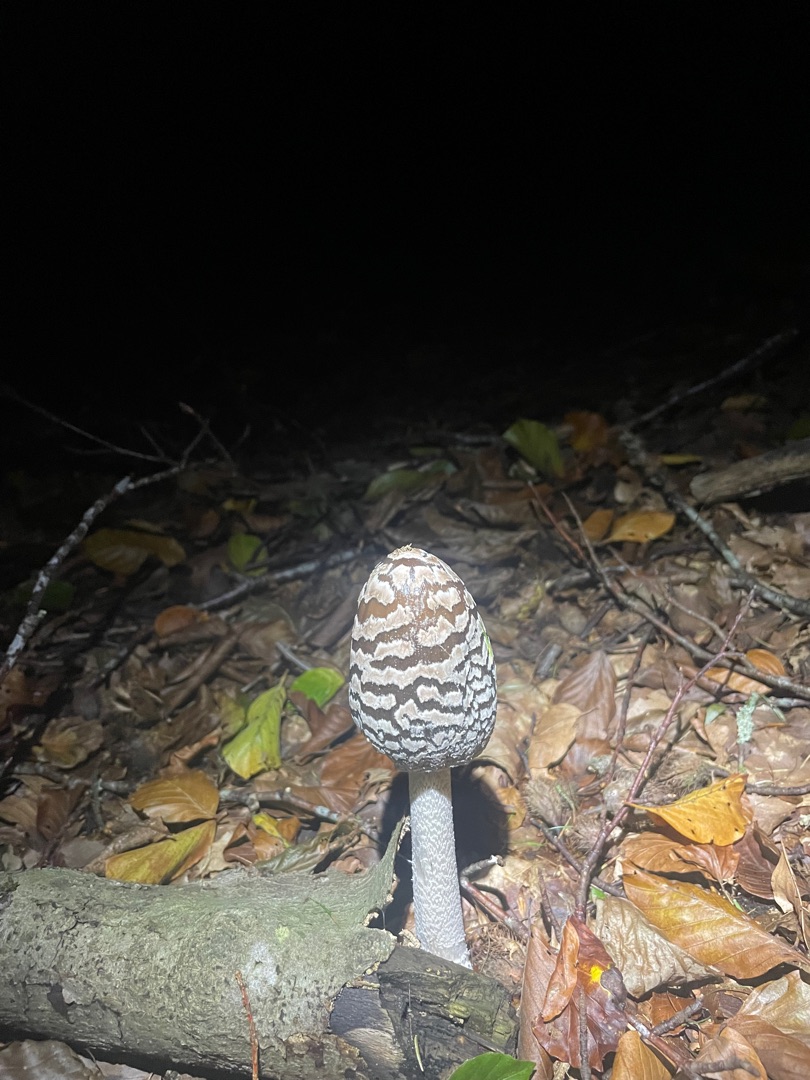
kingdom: Fungi
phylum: Basidiomycota
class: Agaricomycetes
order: Agaricales
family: Psathyrellaceae
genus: Coprinopsis
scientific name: Coprinopsis picacea
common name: Skade-blækhat
